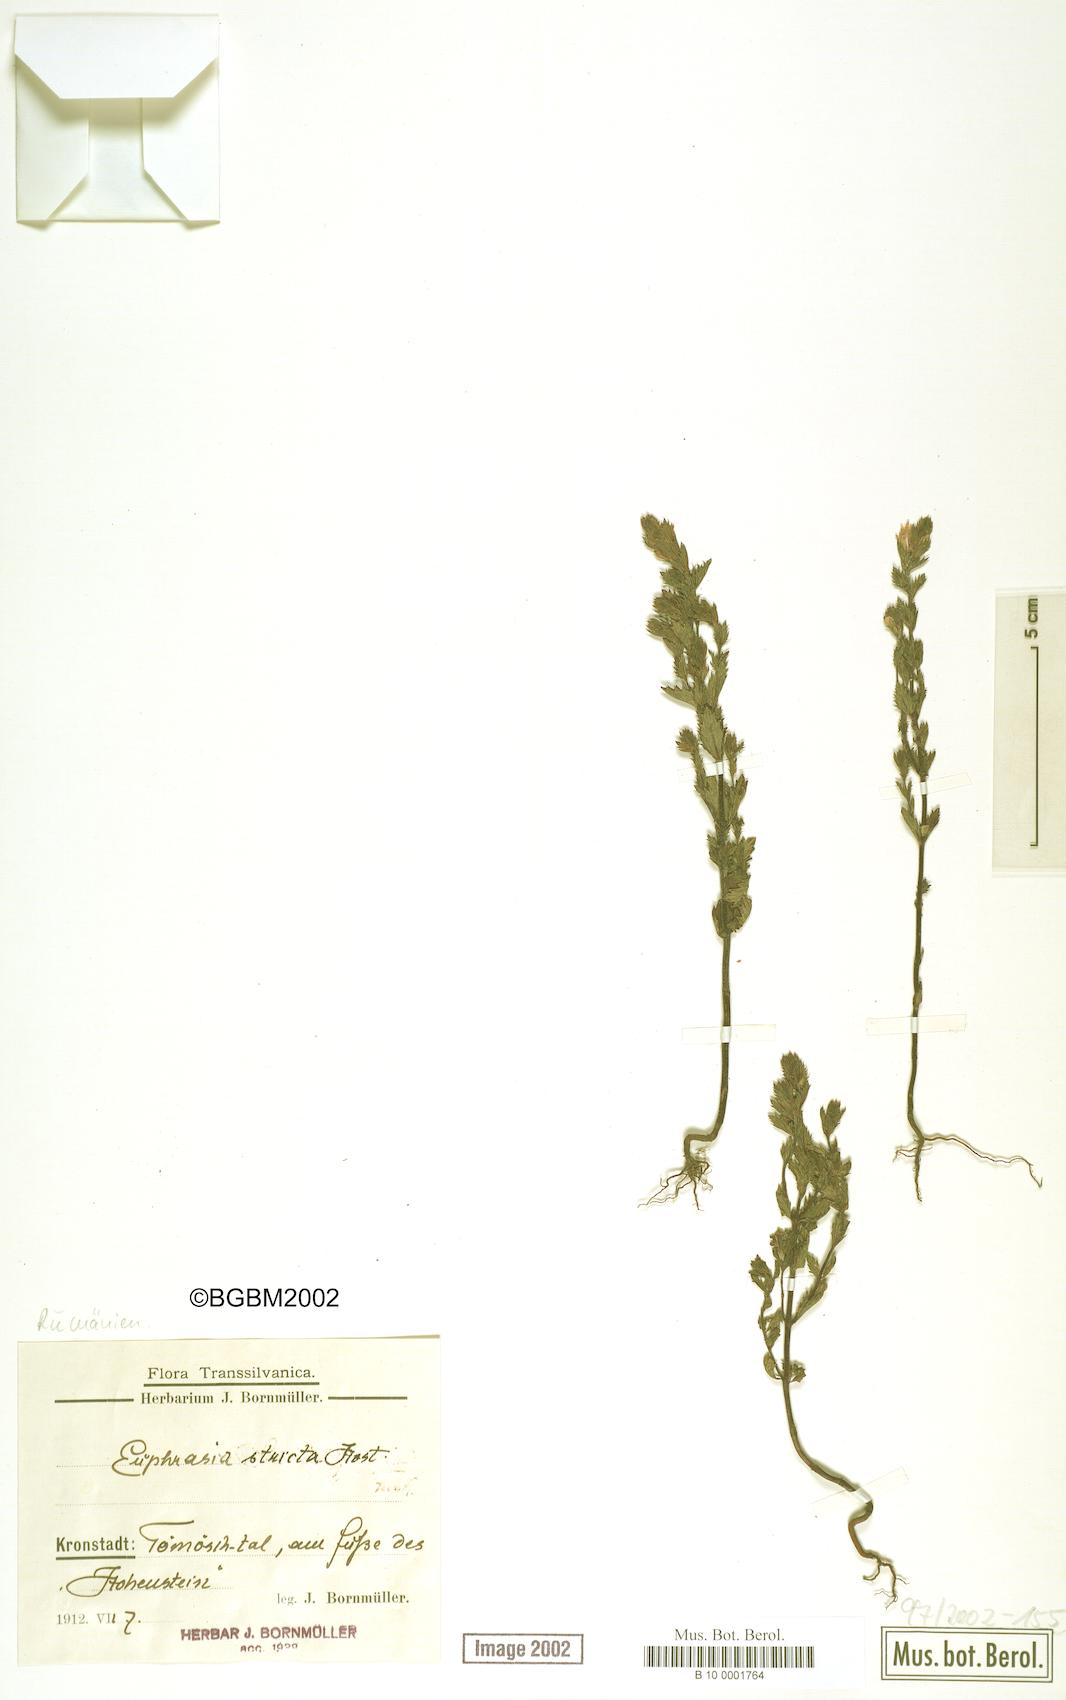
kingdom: Plantae
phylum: Tracheophyta
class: Magnoliopsida
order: Lamiales
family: Orobanchaceae
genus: Euphrasia
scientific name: Euphrasia stricta
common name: Drug eyebright
